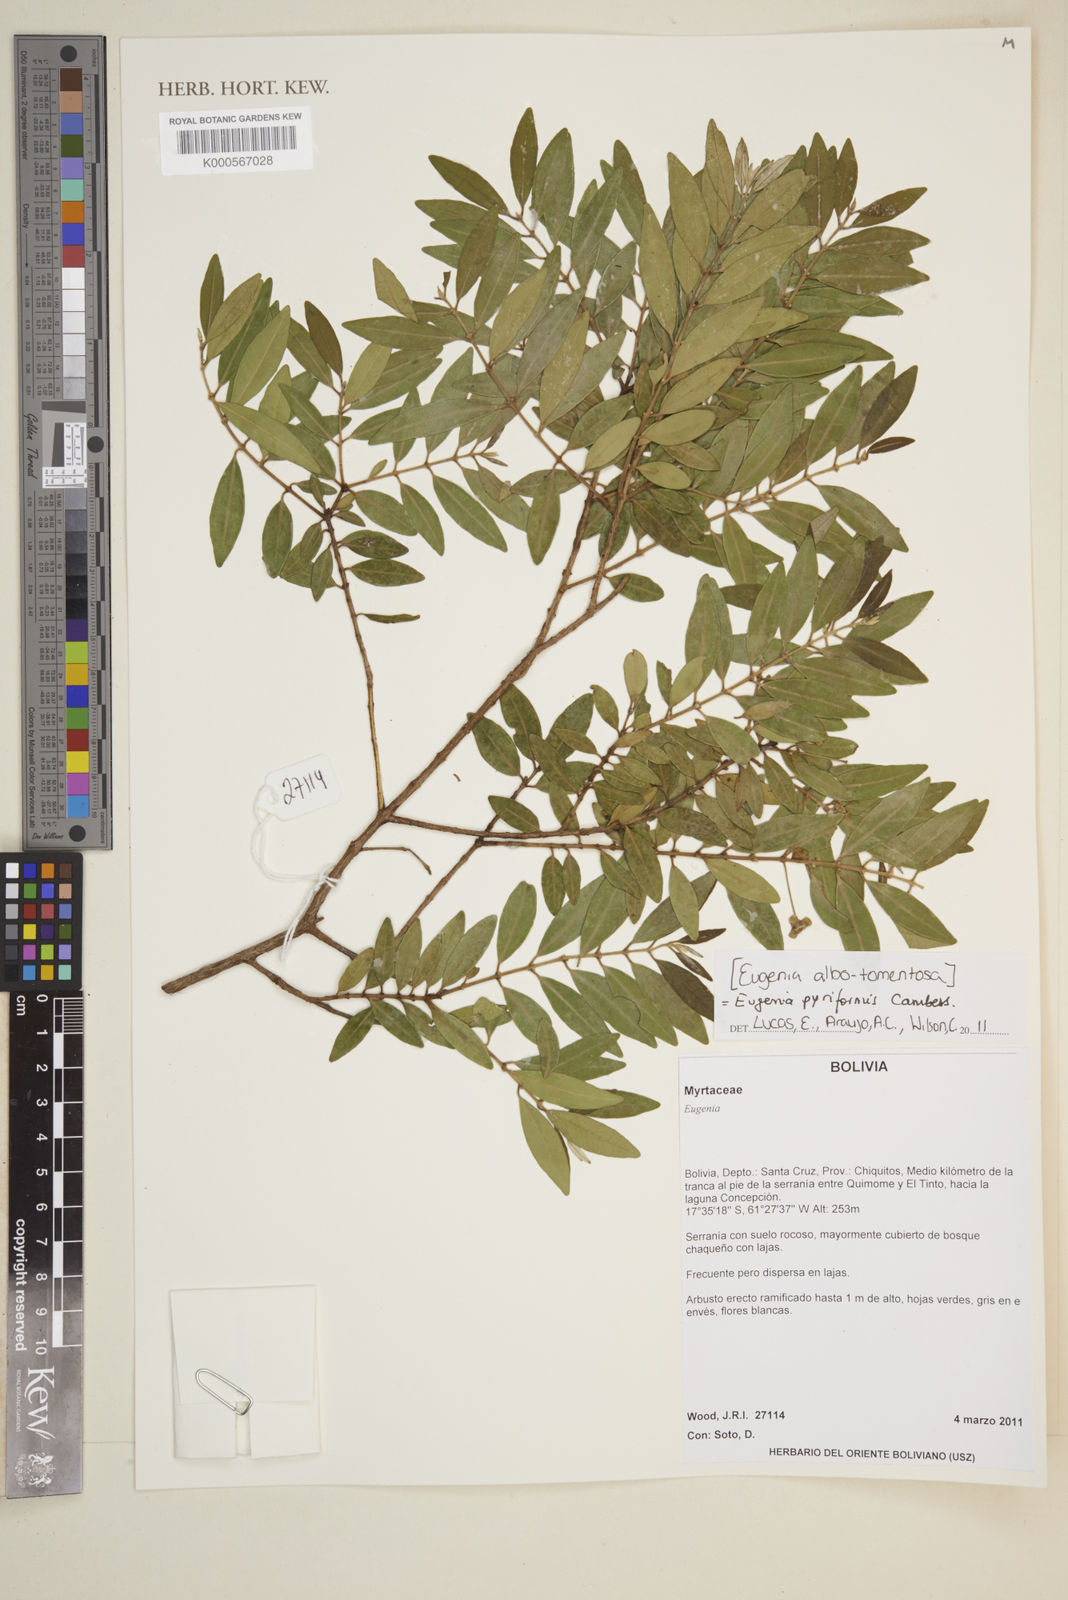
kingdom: Plantae
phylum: Tracheophyta
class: Magnoliopsida
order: Myrtales
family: Myrtaceae
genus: Eugenia
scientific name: Eugenia pyriformis
